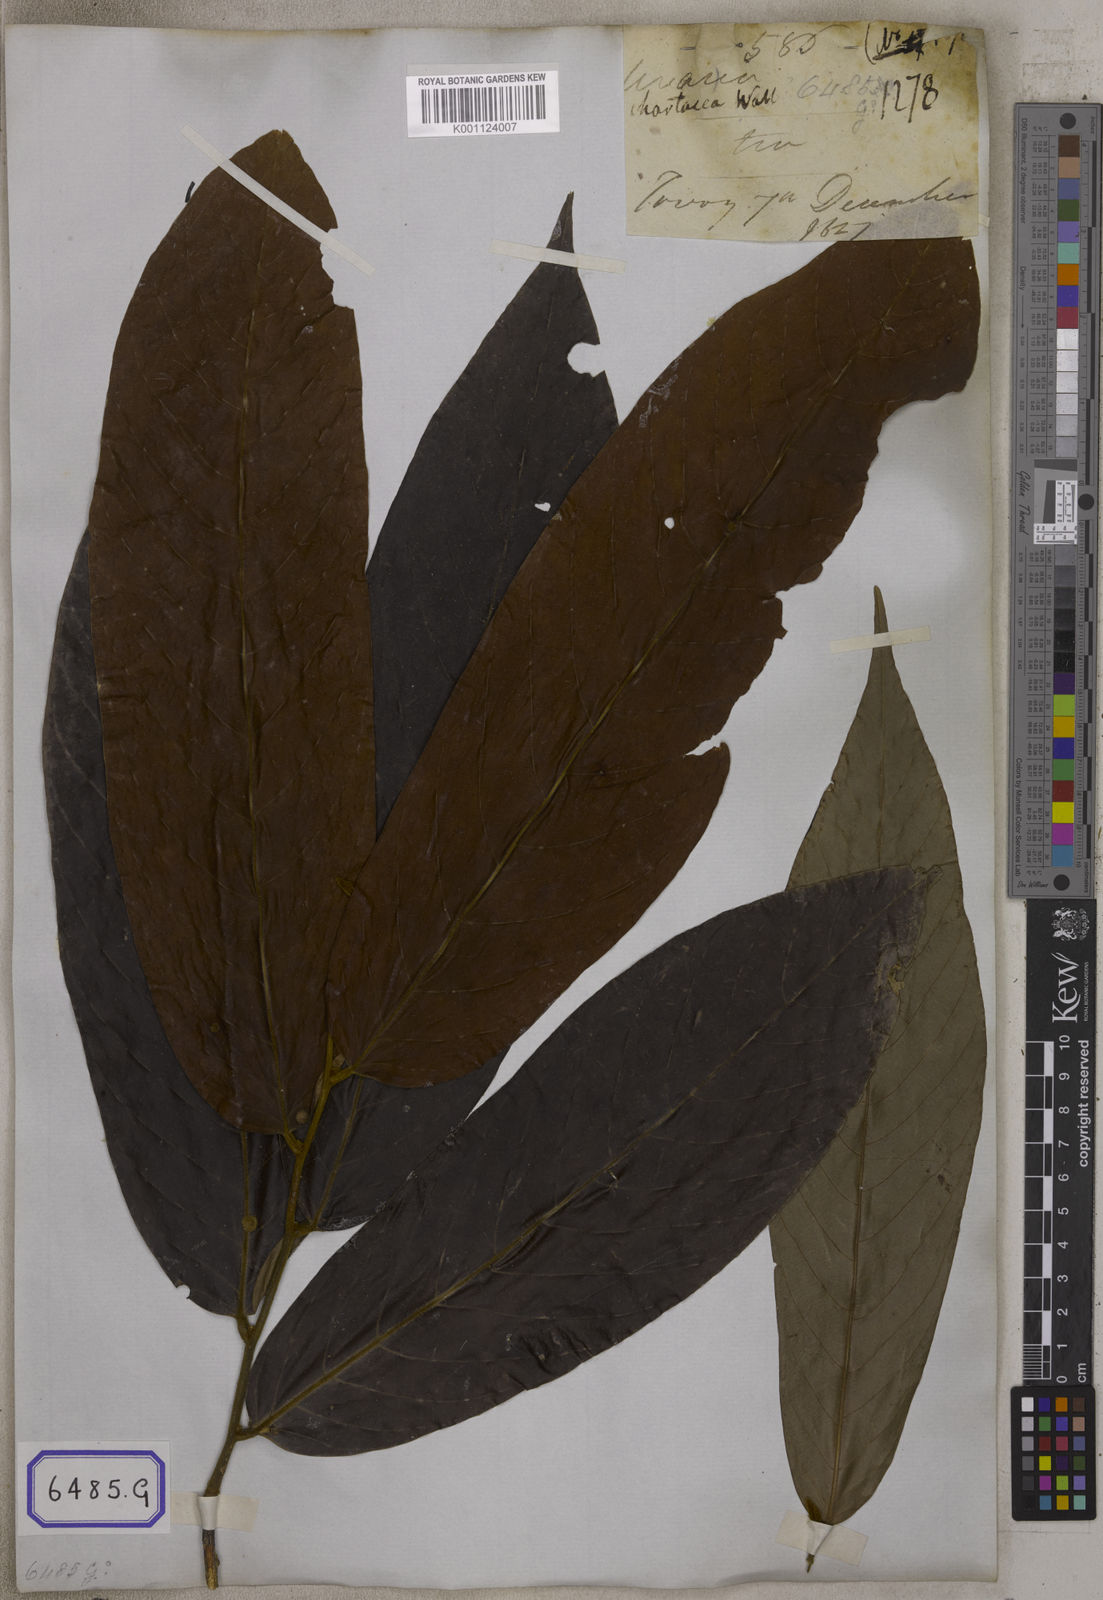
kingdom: Plantae
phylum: Tracheophyta
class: Magnoliopsida
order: Magnoliales
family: Annonaceae
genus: Uvaria
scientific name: Uvaria grandiflora
